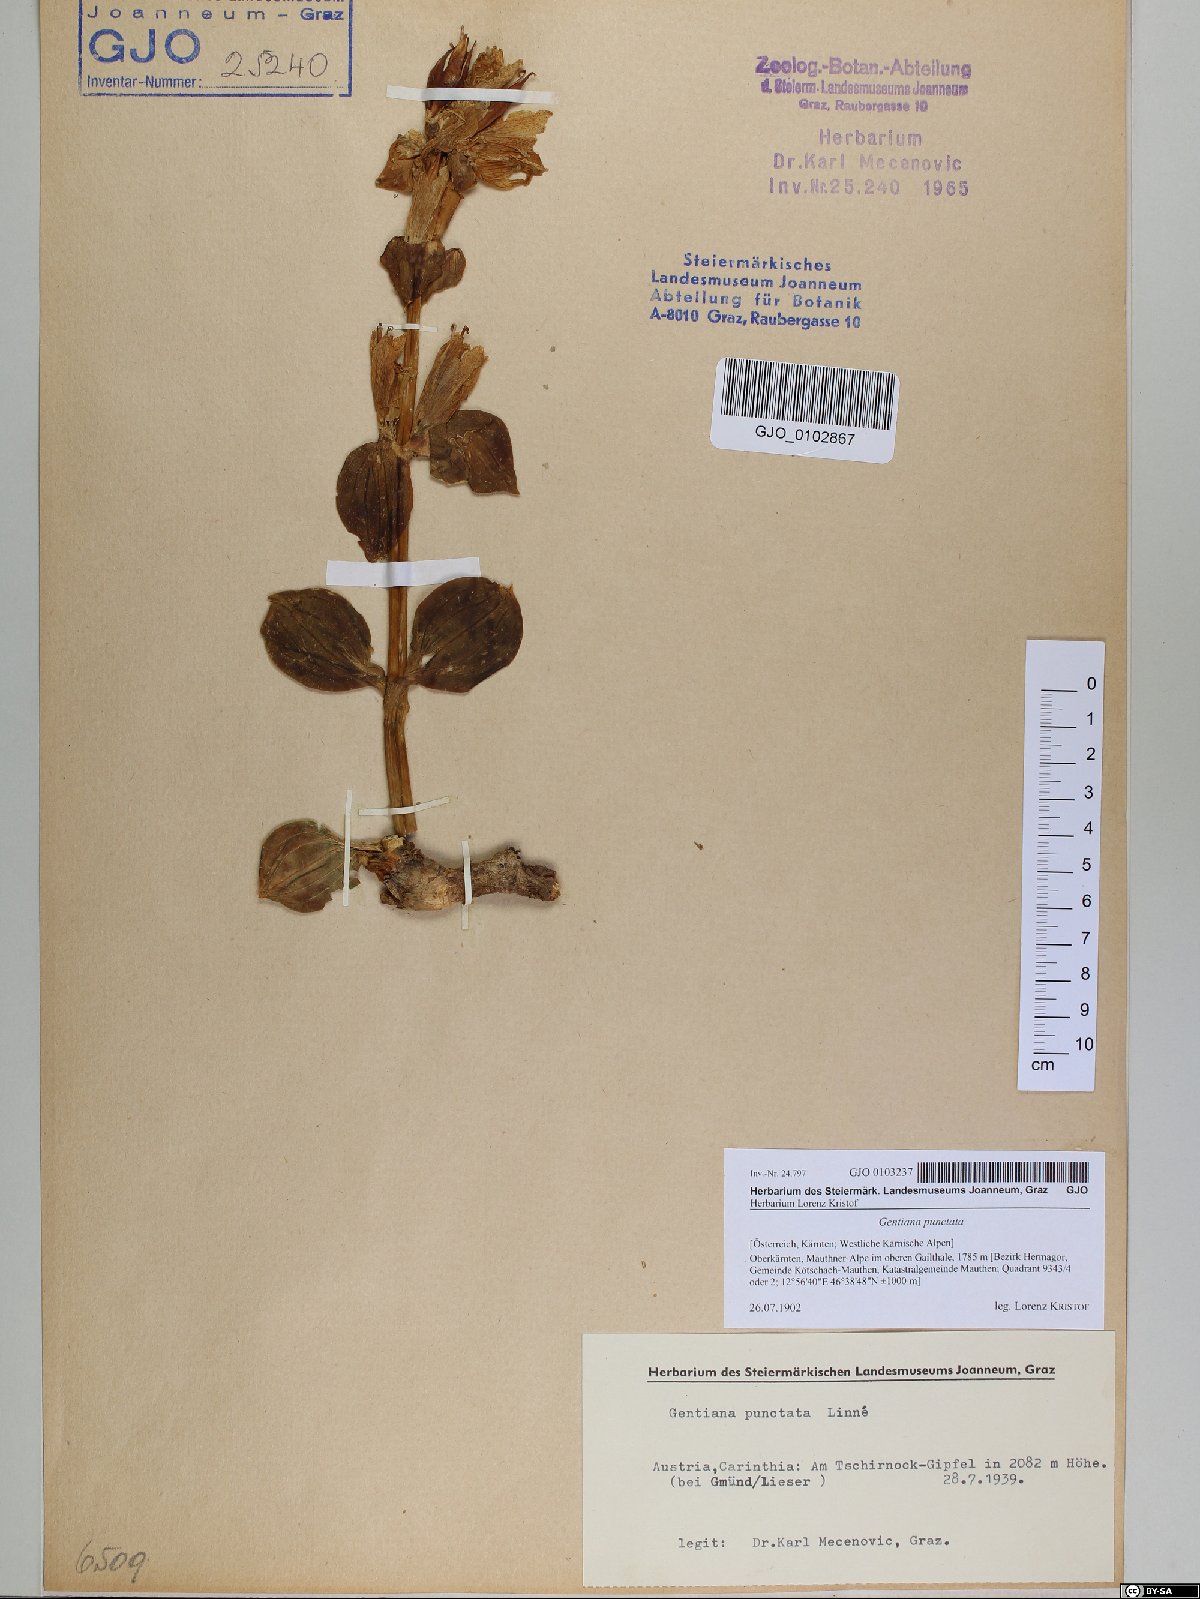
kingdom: Plantae
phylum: Tracheophyta
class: Magnoliopsida
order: Gentianales
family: Gentianaceae
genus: Gentiana
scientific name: Gentiana punctata
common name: Spotted gentian
